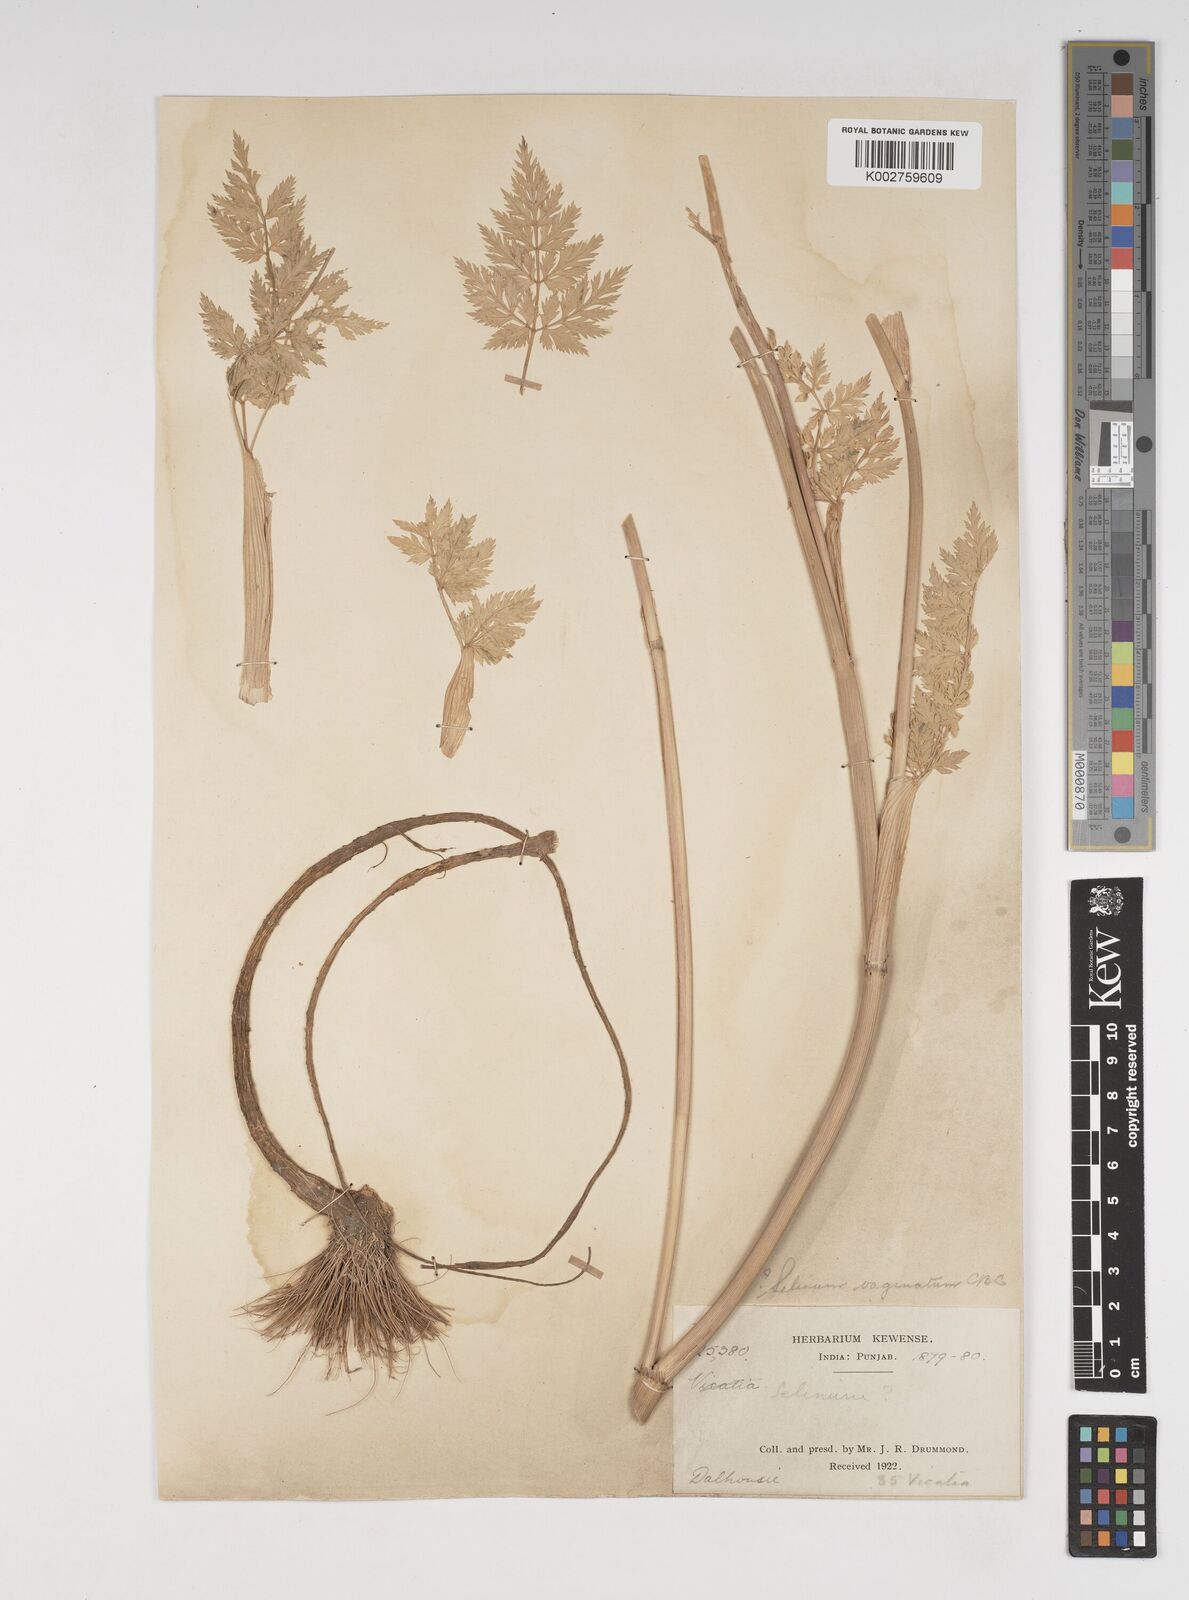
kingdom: Plantae
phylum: Tracheophyta
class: Magnoliopsida
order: Apiales
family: Apiaceae
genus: Selinum
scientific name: Selinum vaginatum
